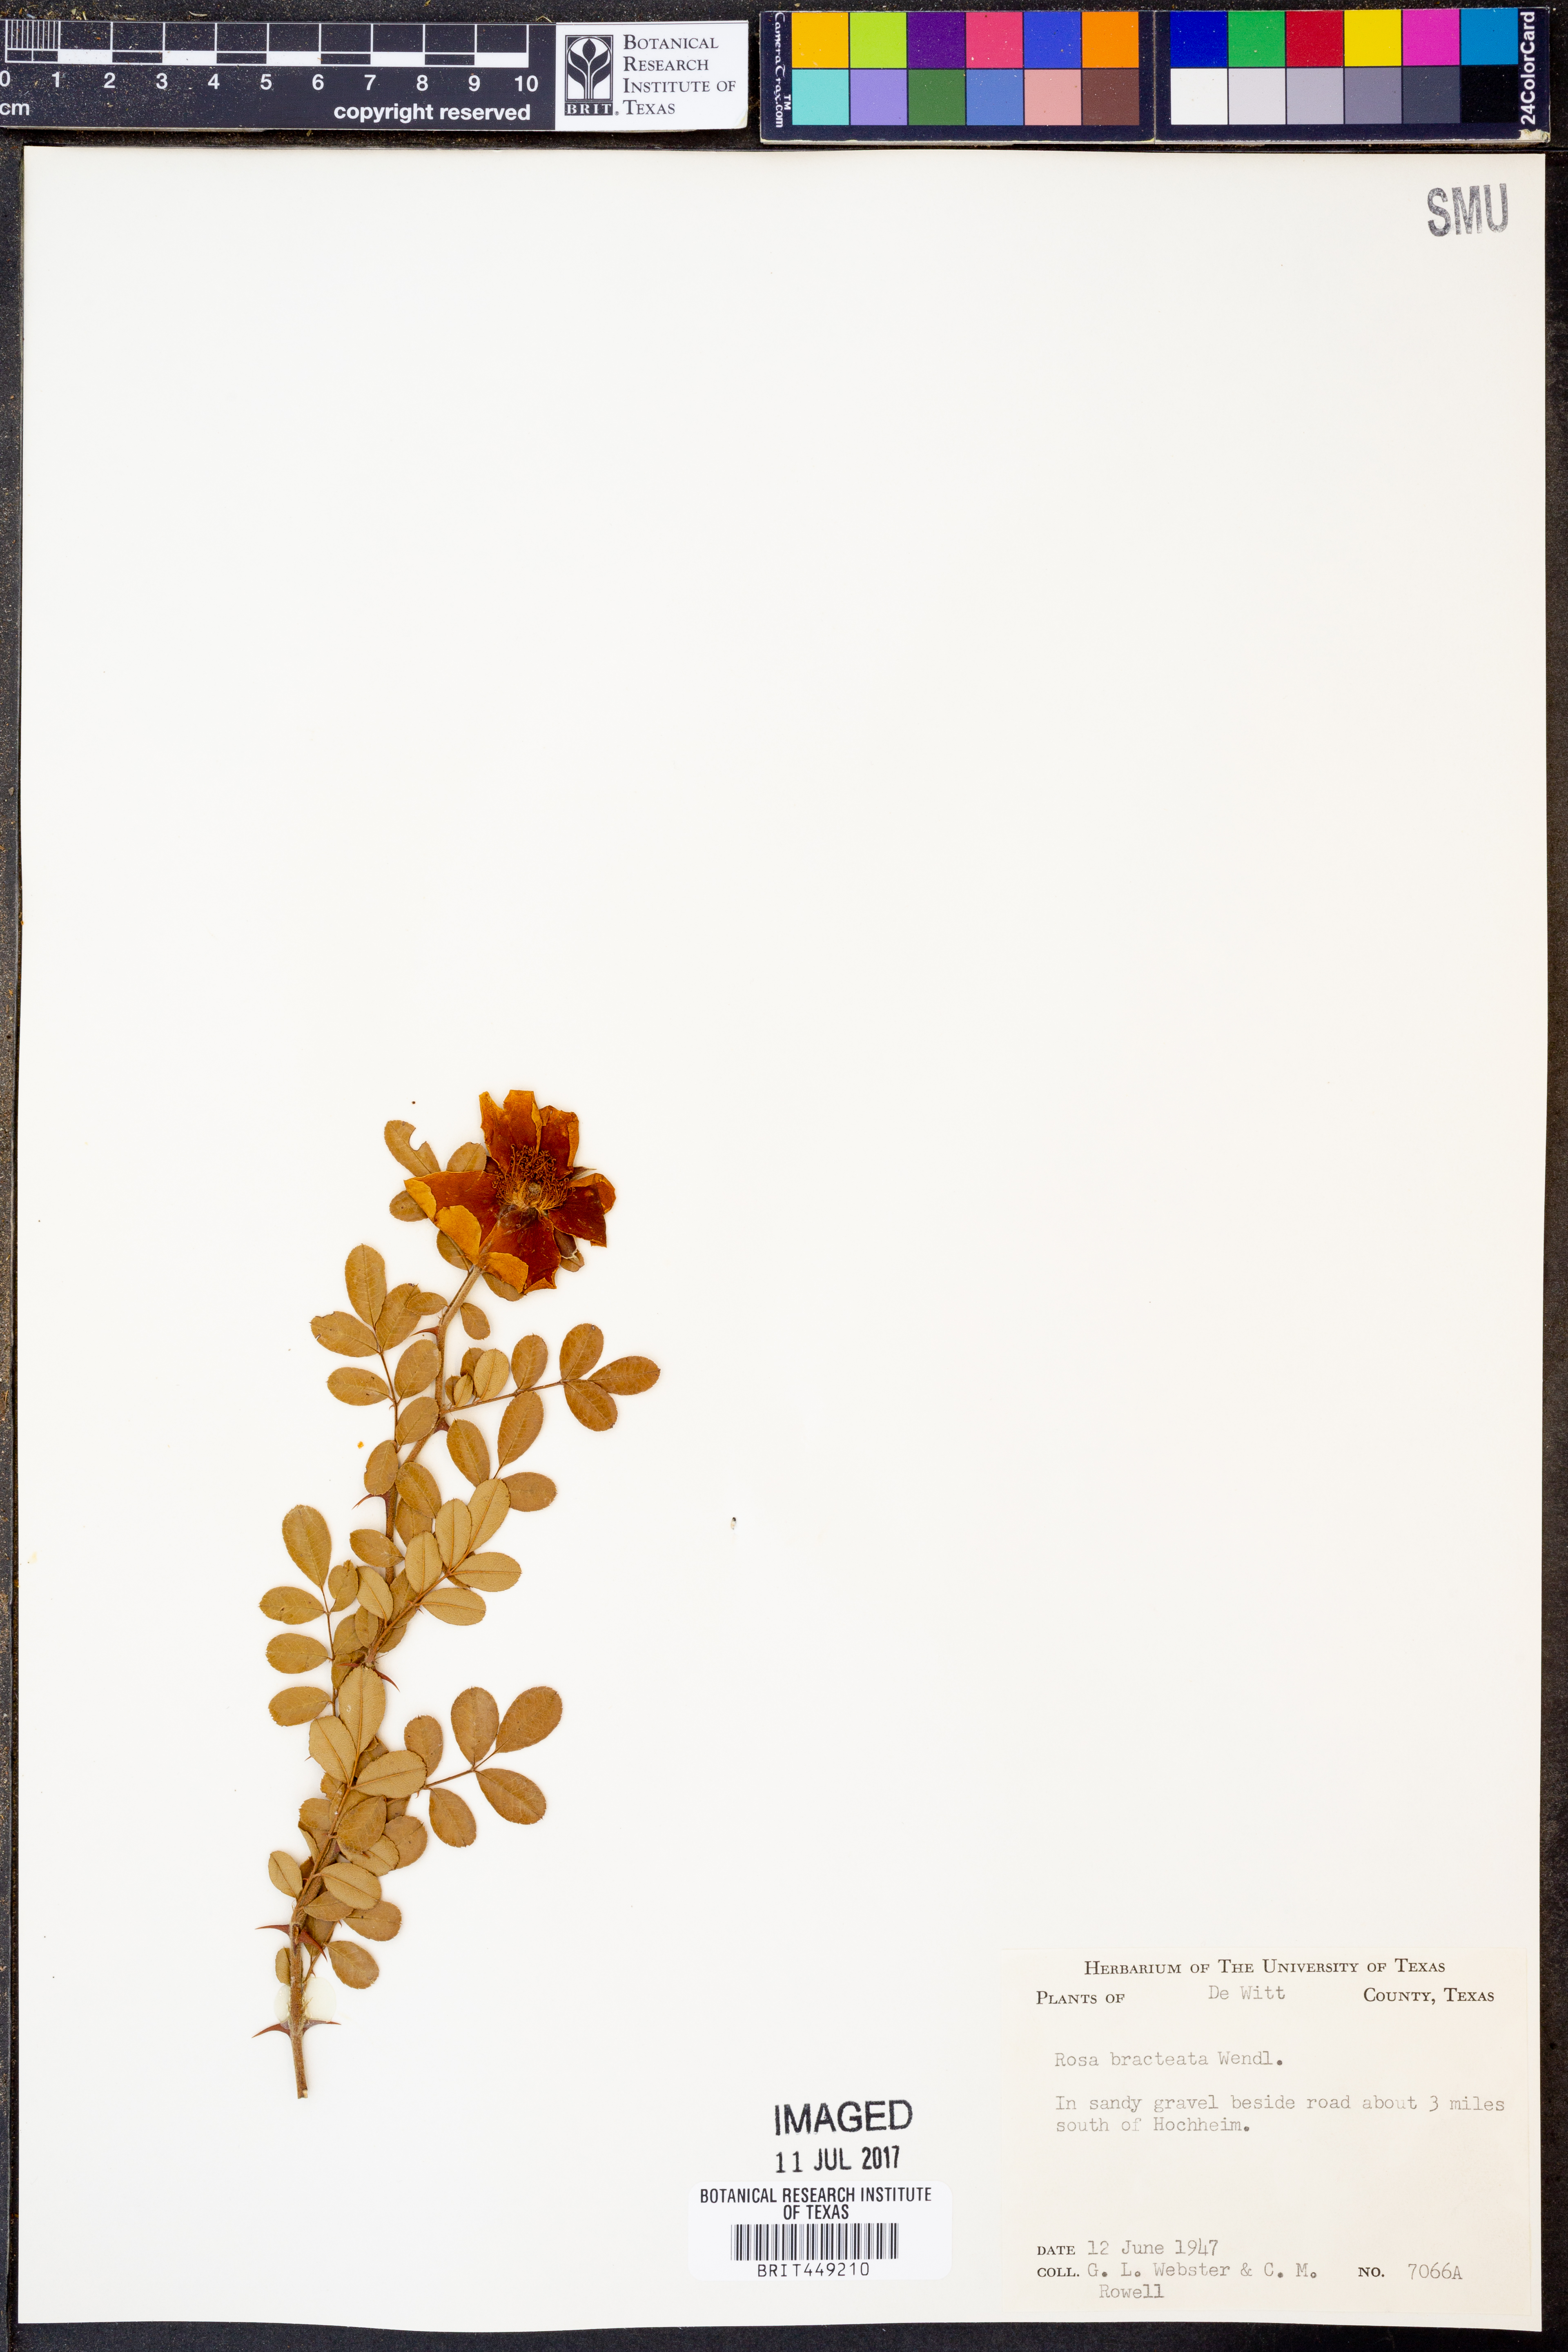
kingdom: Plantae
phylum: Tracheophyta
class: Magnoliopsida
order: Rosales
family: Rosaceae
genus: Rosa
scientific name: Rosa bracteata
